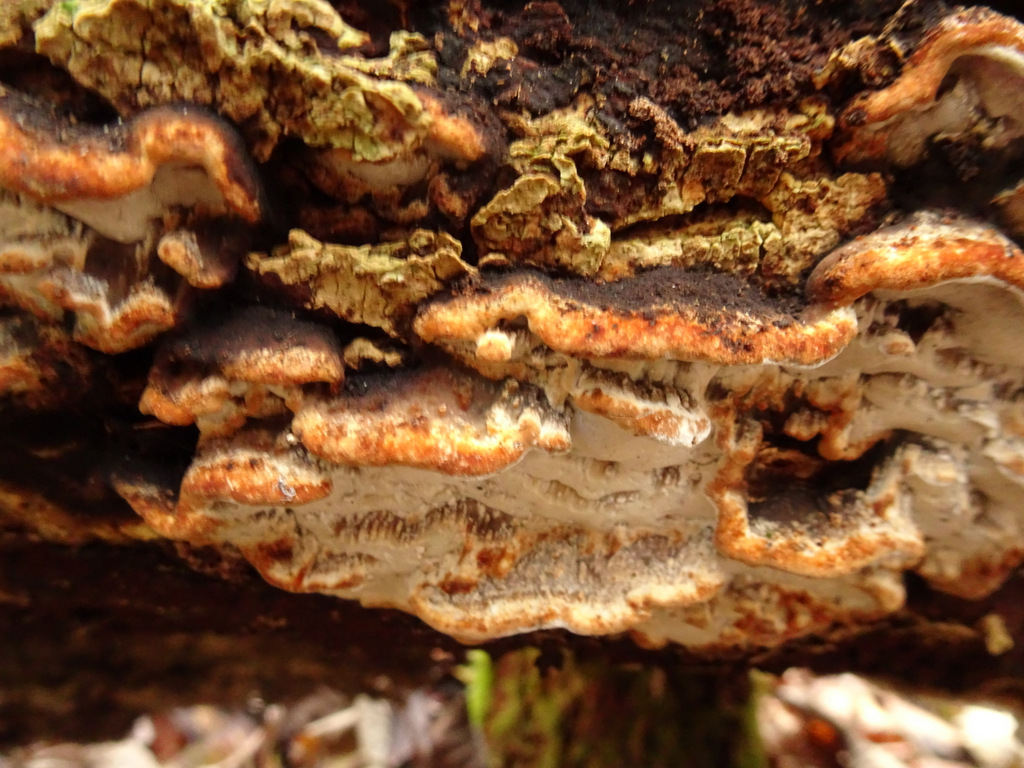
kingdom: Fungi
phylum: Basidiomycota
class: Agaricomycetes
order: Polyporales
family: Incrustoporiaceae
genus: Skeletocutis
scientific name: Skeletocutis nemoralis
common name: stor krystalporesvamp
